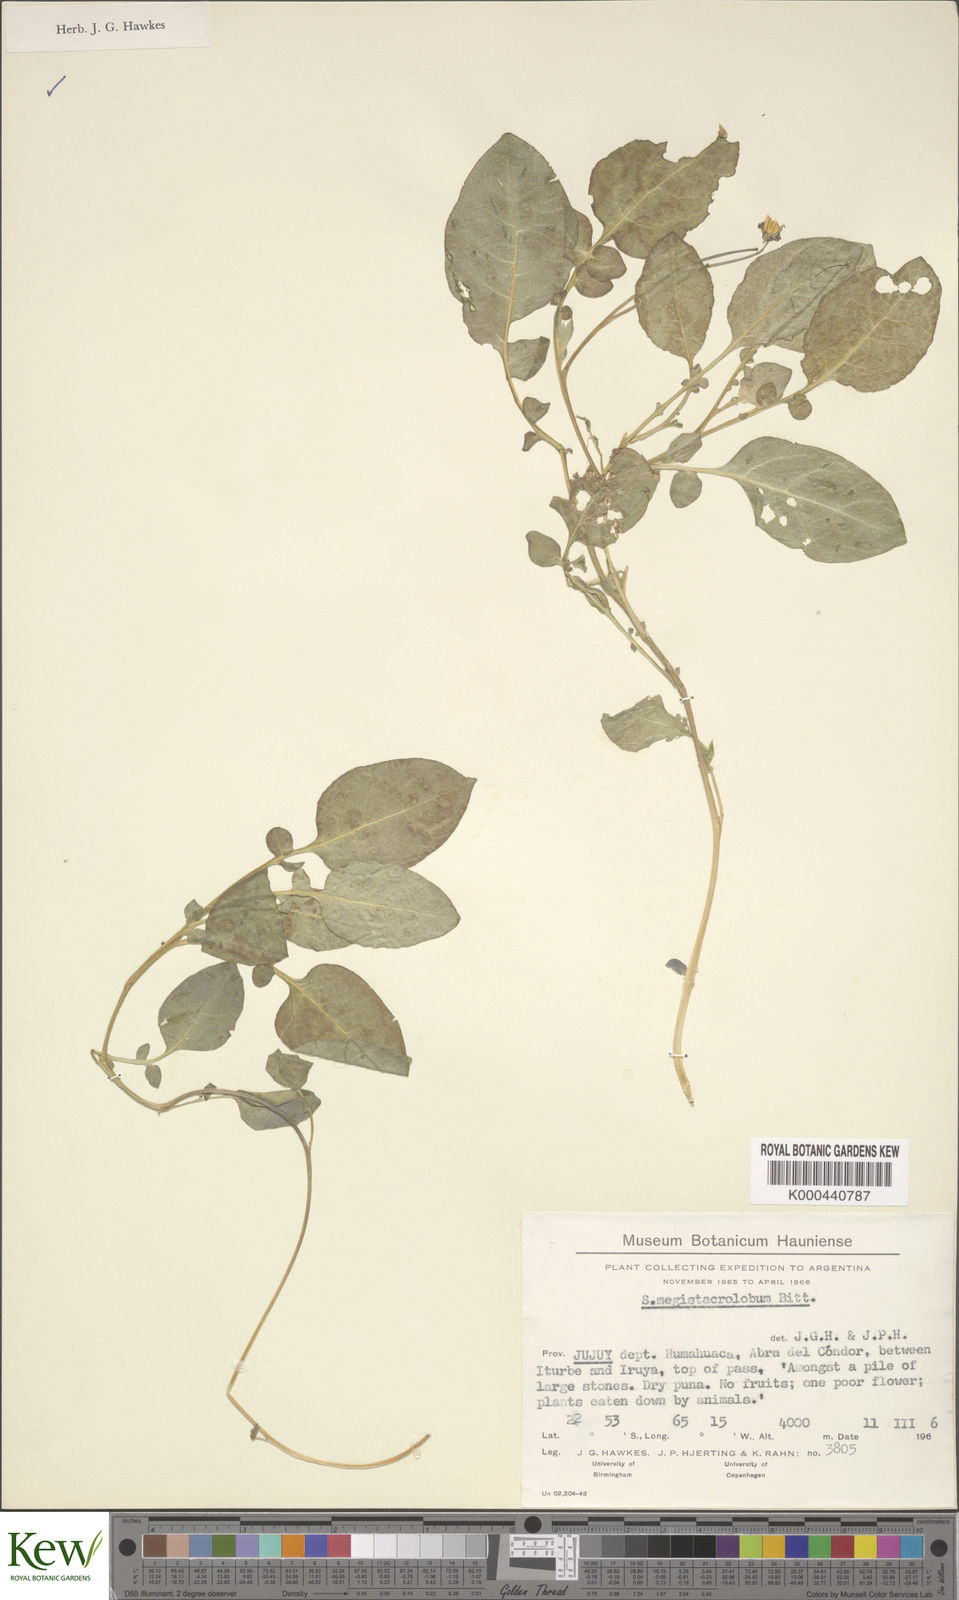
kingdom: Plantae
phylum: Tracheophyta
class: Magnoliopsida
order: Solanales
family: Solanaceae
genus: Solanum
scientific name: Solanum boliviense
